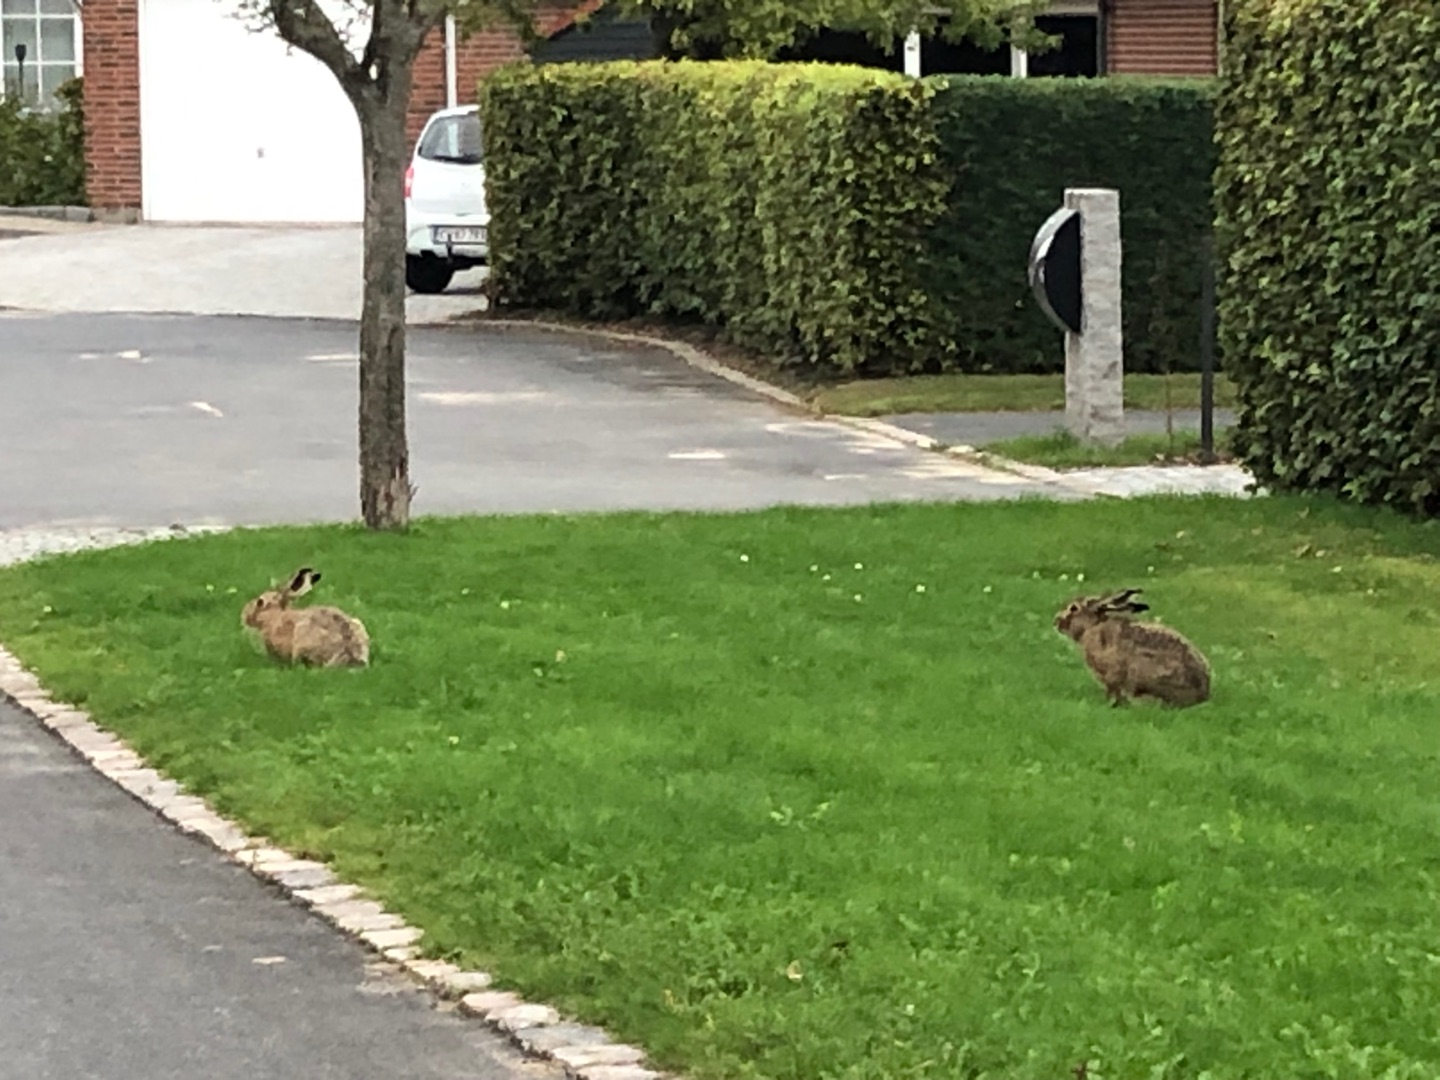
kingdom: Animalia
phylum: Chordata
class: Mammalia
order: Lagomorpha
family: Leporidae
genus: Lepus
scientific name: Lepus europaeus
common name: Hare
